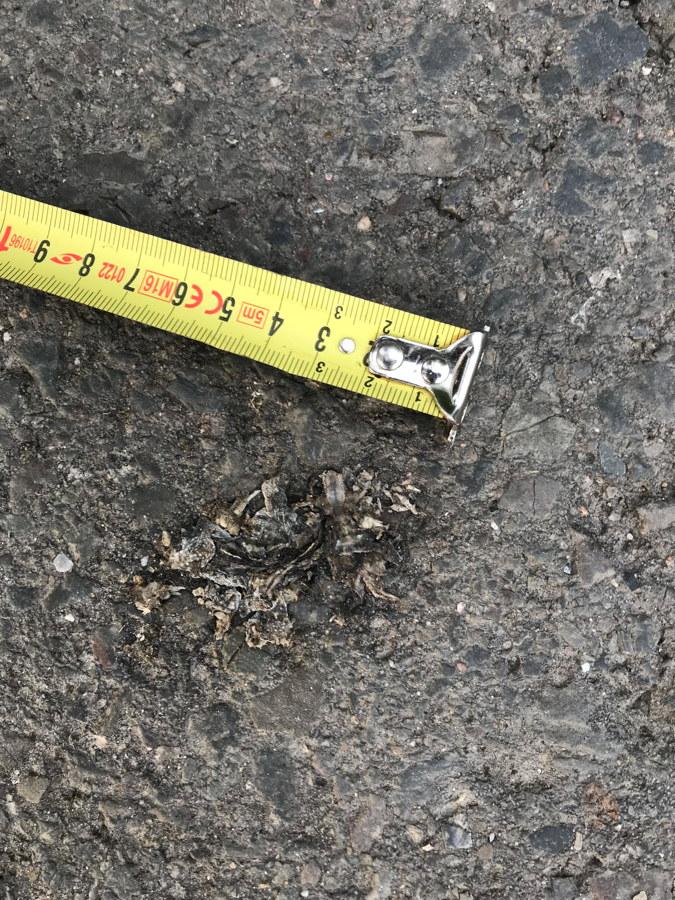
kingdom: Animalia
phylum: Chordata
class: Amphibia
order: Anura
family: Bufonidae
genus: Epidalea
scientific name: Epidalea calamita
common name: Natterjack toad
